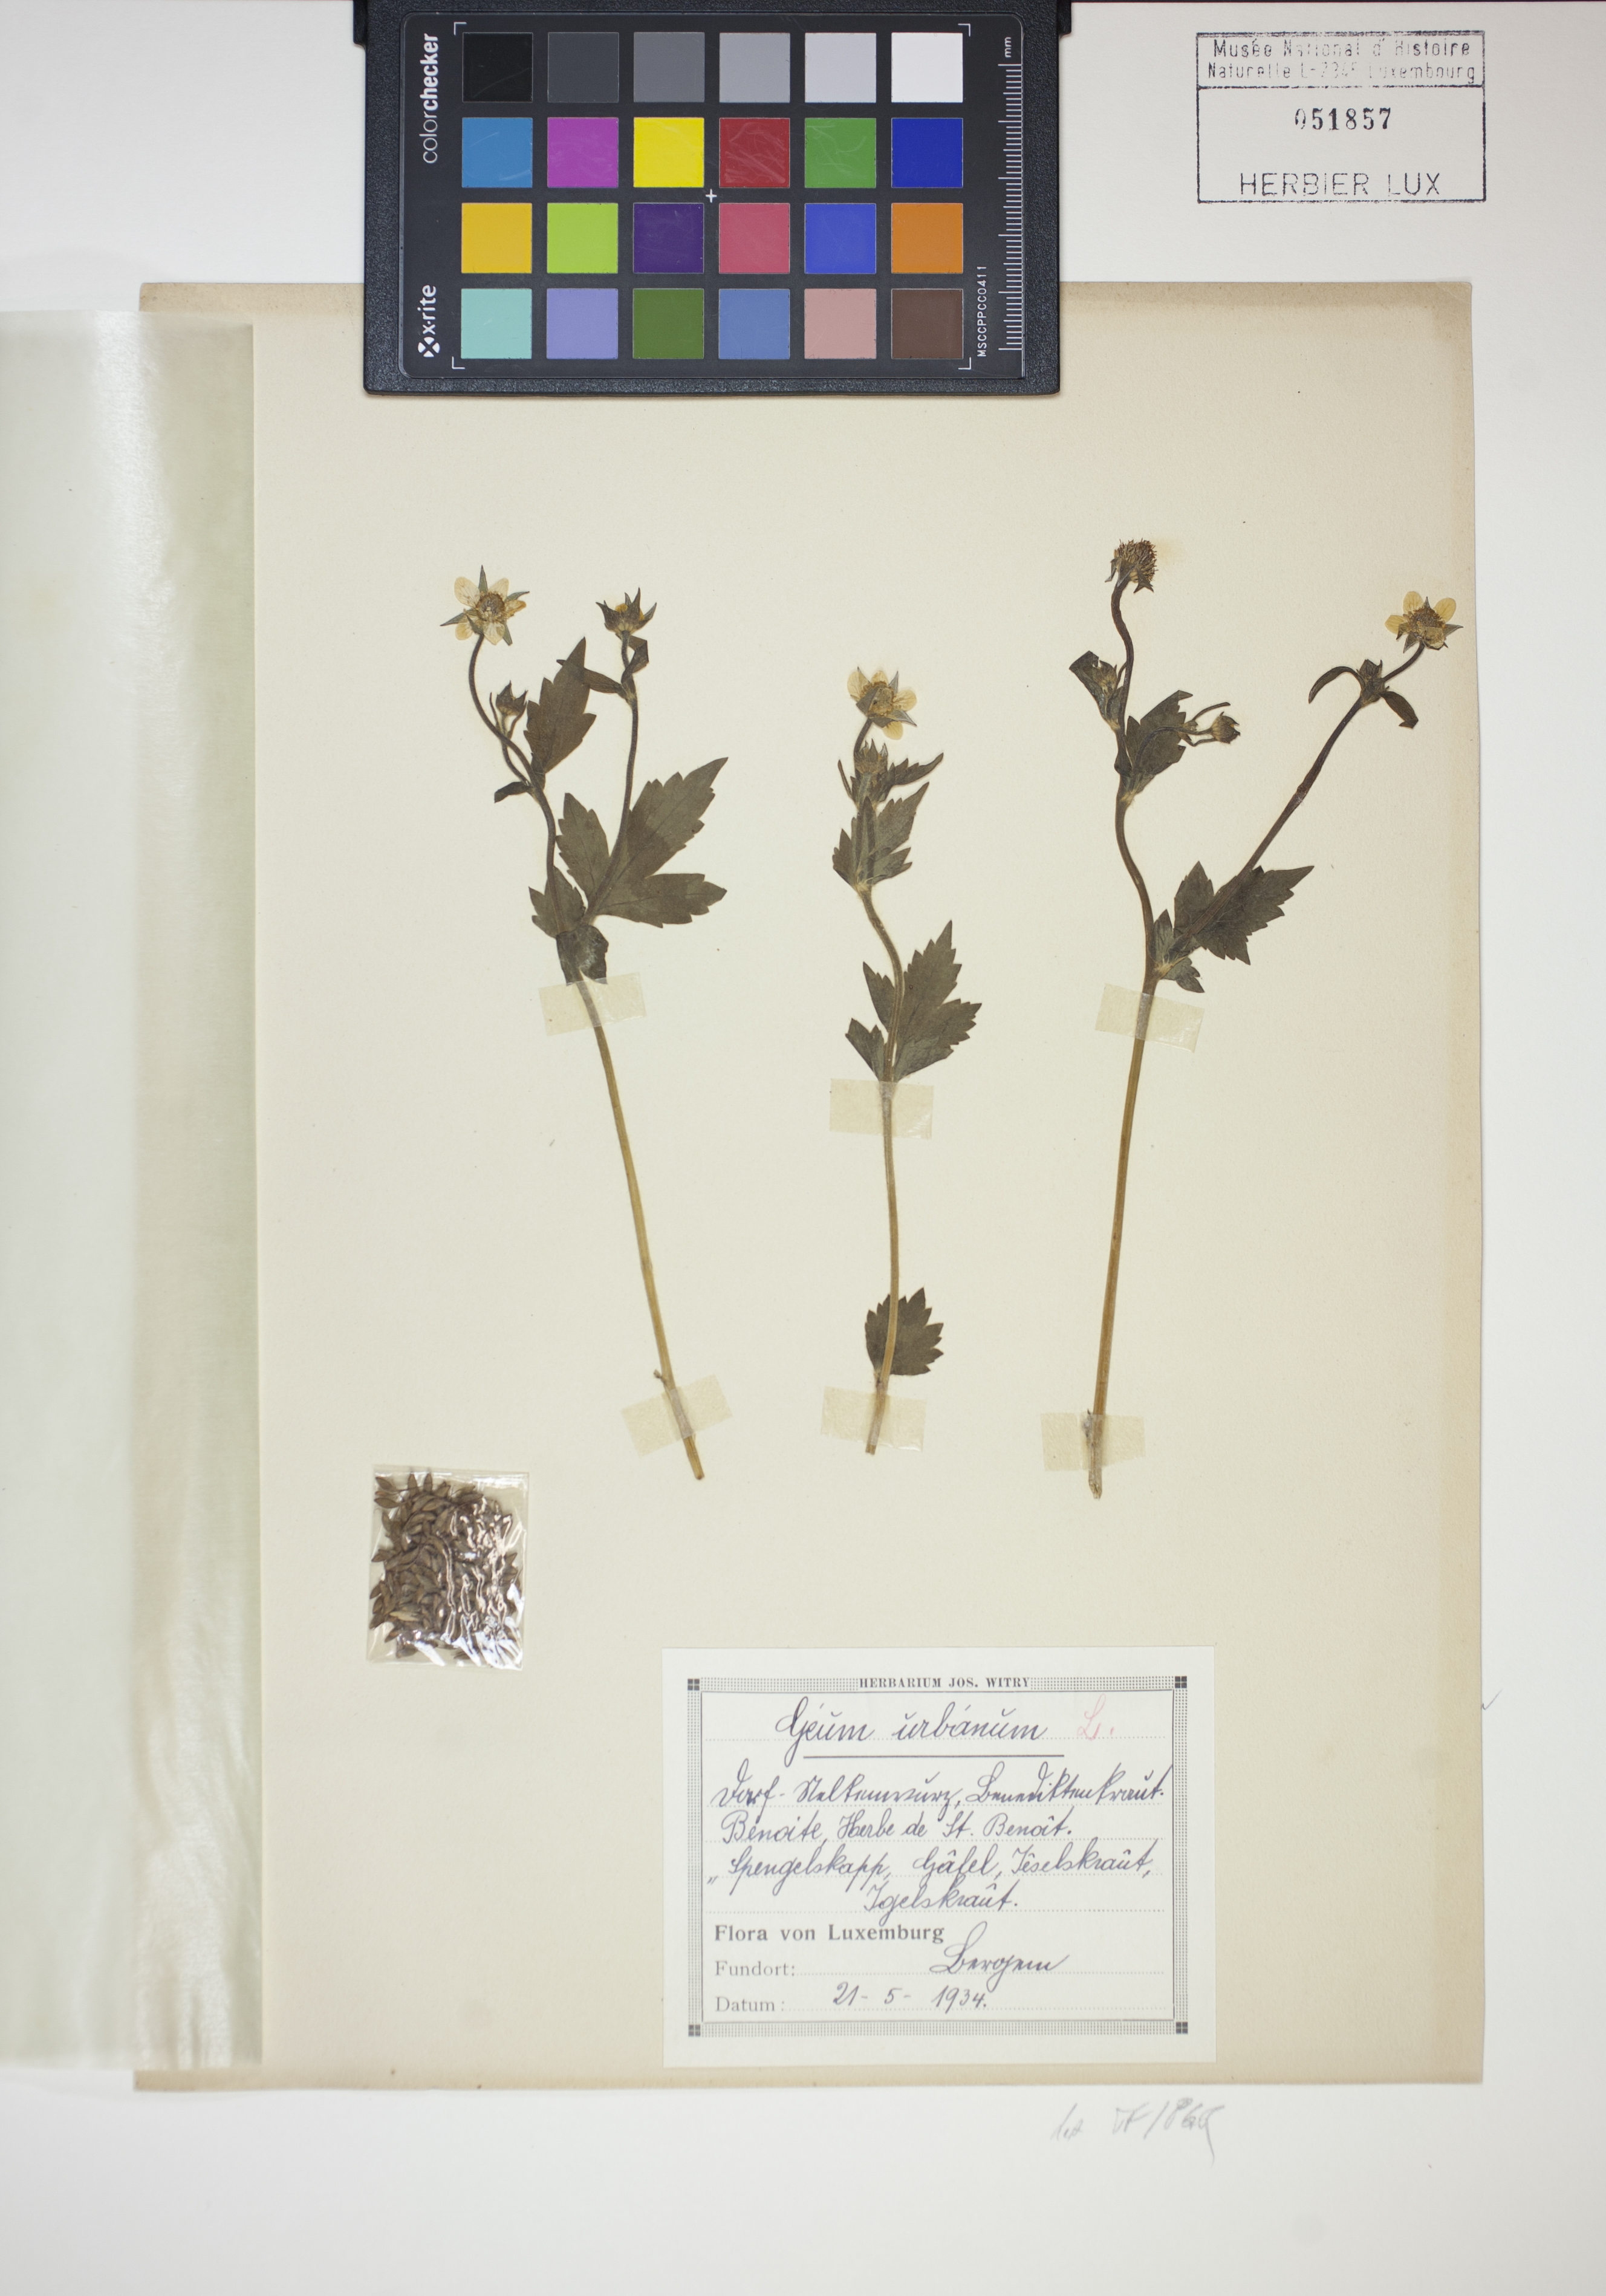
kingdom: Plantae
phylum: Tracheophyta
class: Magnoliopsida
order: Rosales
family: Rosaceae
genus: Geum
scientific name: Geum urbanum
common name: Wood avens
